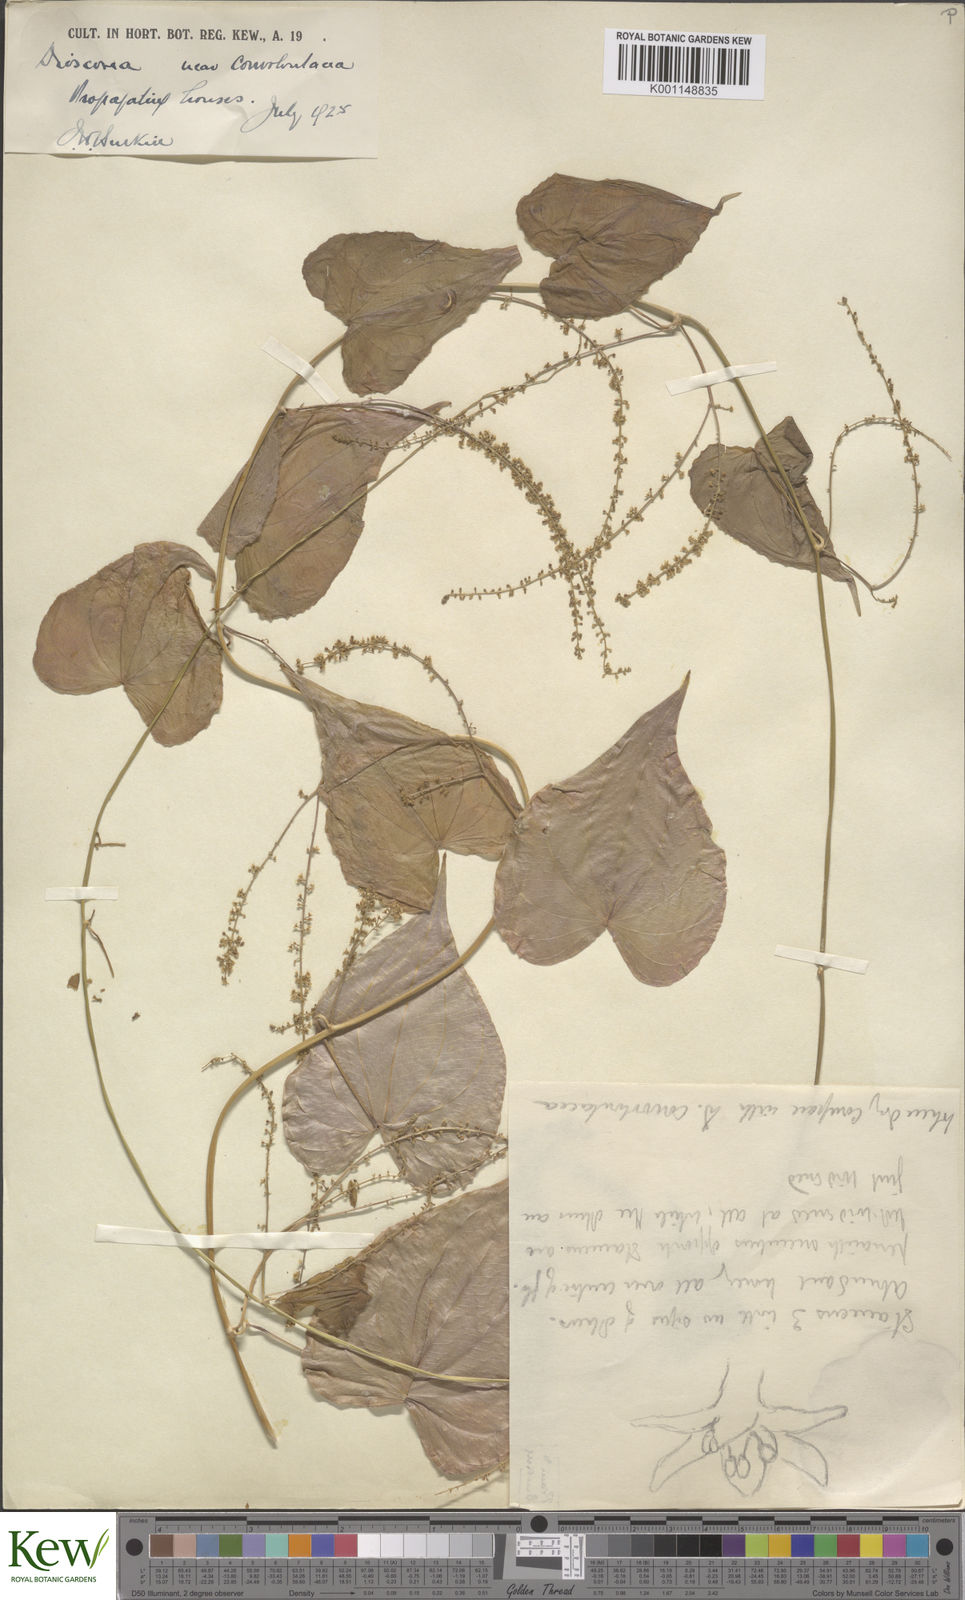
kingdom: Plantae
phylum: Tracheophyta
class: Liliopsida
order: Dioscoreales
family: Dioscoreaceae
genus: Dioscorea
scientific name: Dioscorea convolvulacea
